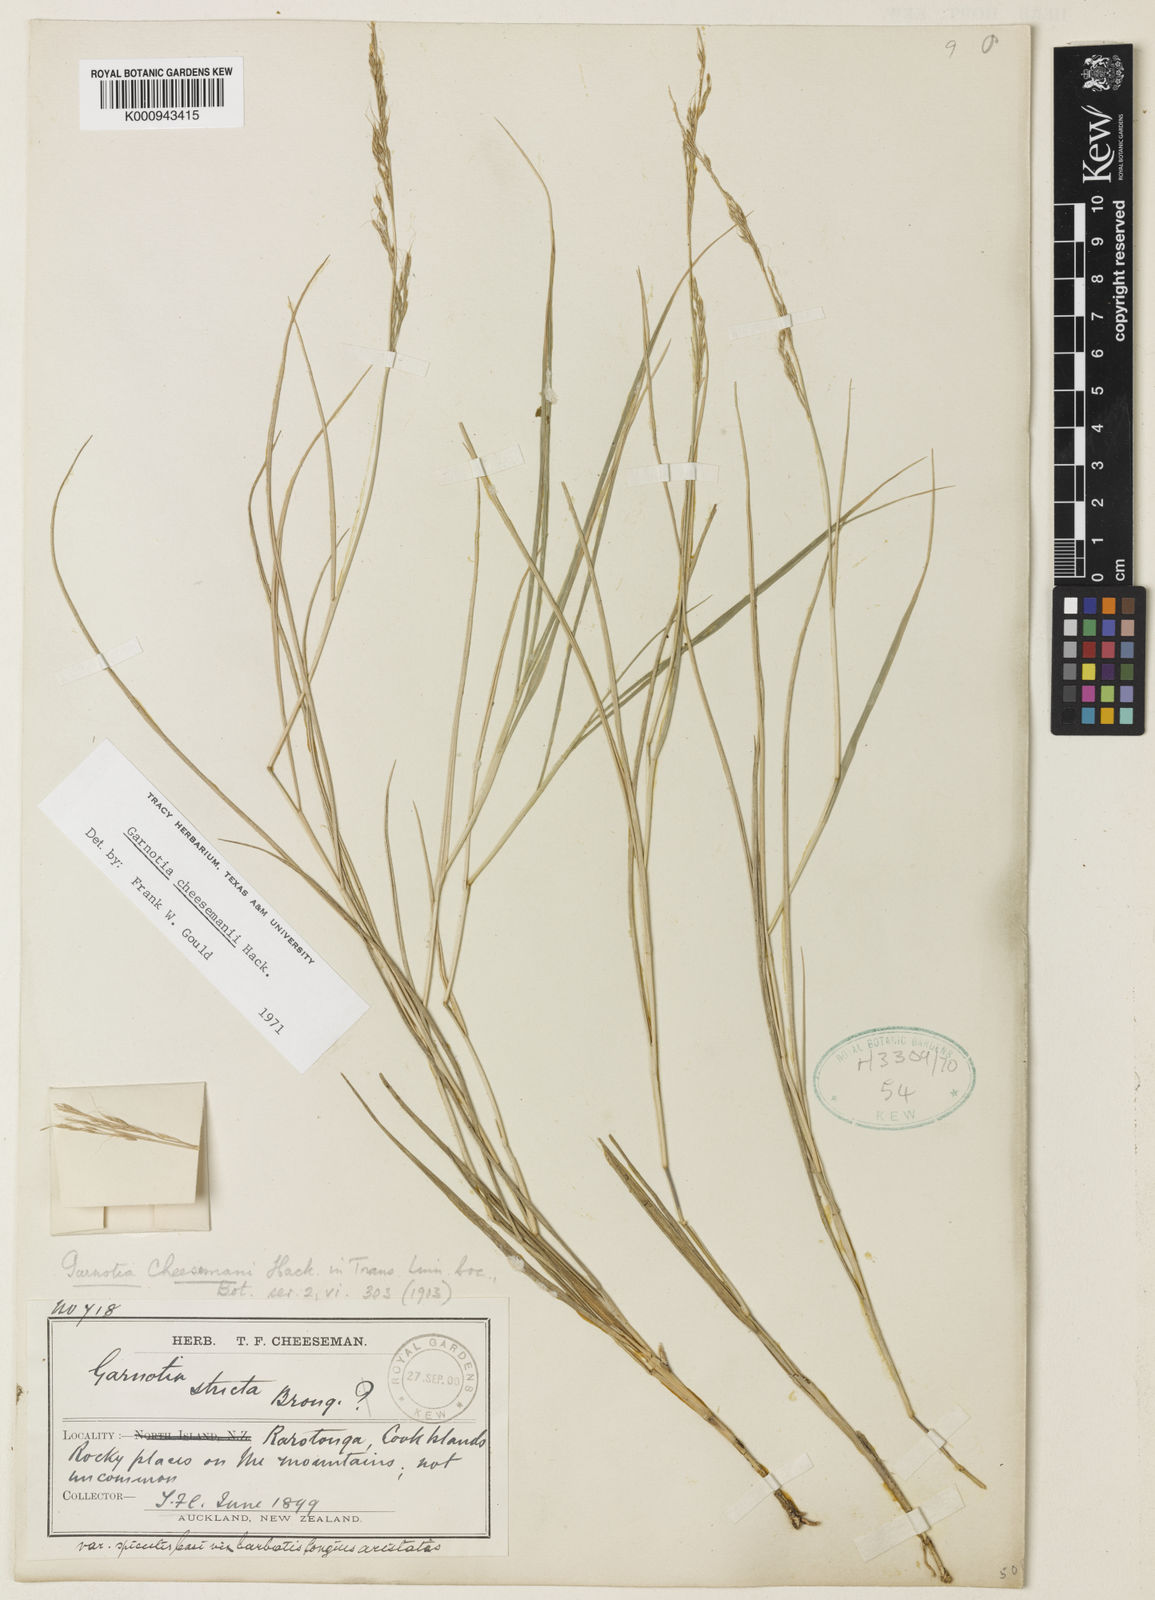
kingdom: Plantae
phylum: Tracheophyta
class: Liliopsida
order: Poales
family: Poaceae
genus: Garnotia
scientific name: Garnotia cheesemanii
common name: Rarotongan garnotia grass
